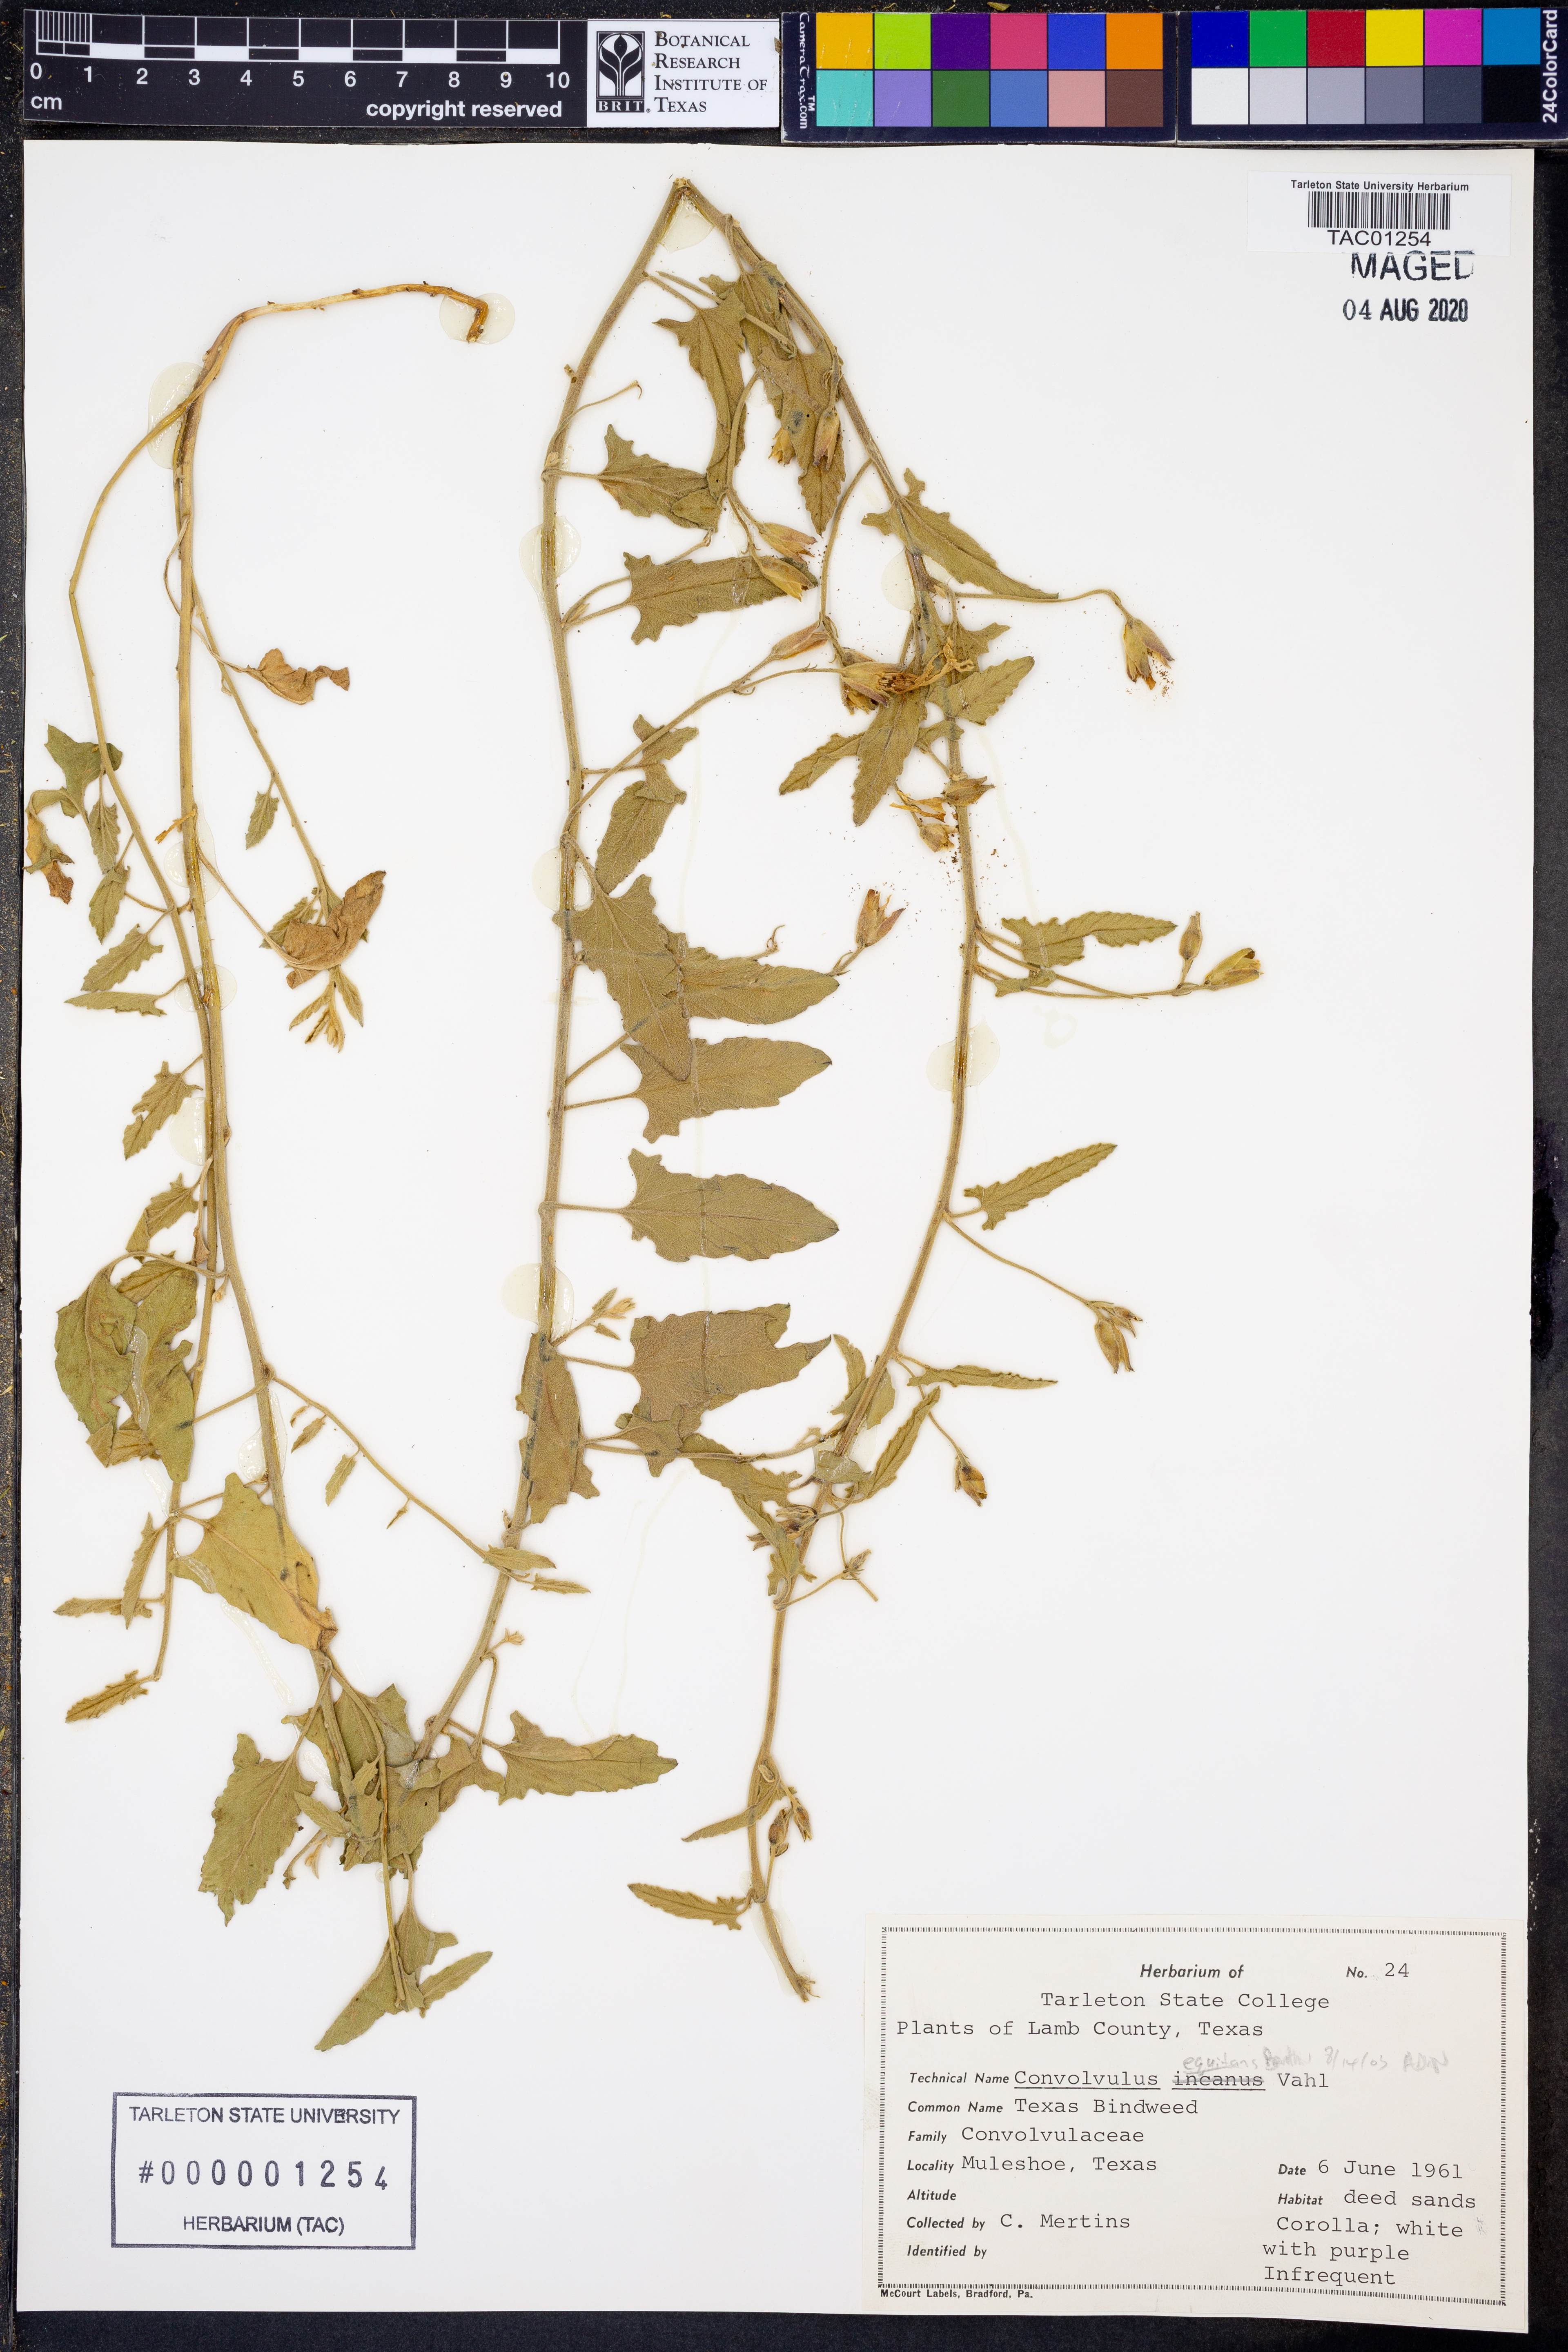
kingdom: Plantae
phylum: Tracheophyta
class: Magnoliopsida
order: Solanales
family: Convolvulaceae
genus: Convolvulus
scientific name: Convolvulus equitans
